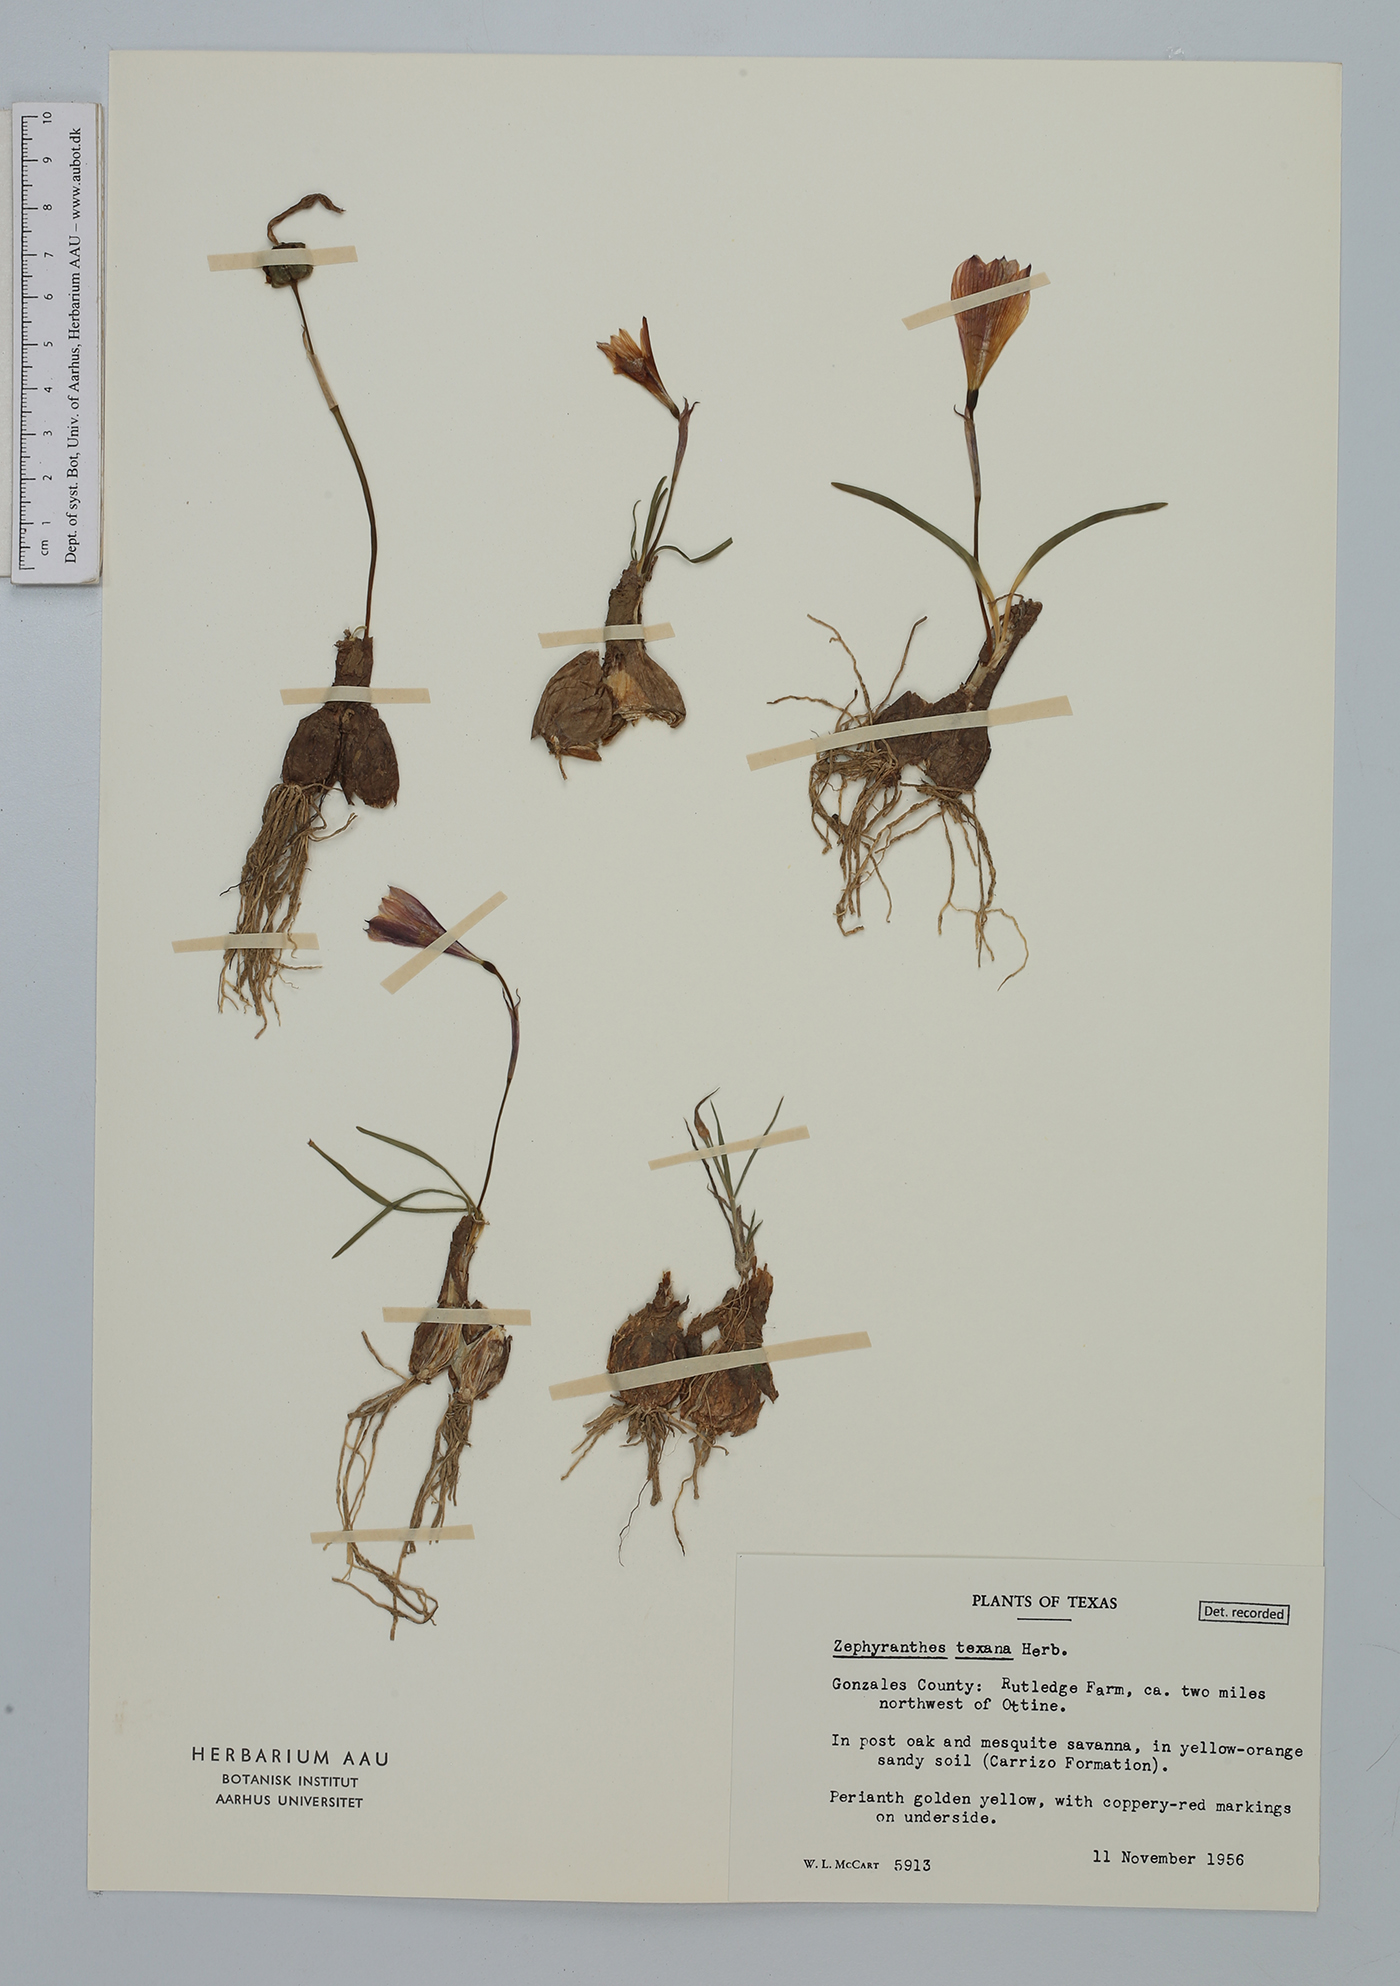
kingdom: Plantae
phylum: Tracheophyta
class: Liliopsida
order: Asparagales
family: Amaryllidaceae
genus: Zephyranthes
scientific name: Zephyranthes tubispatha
